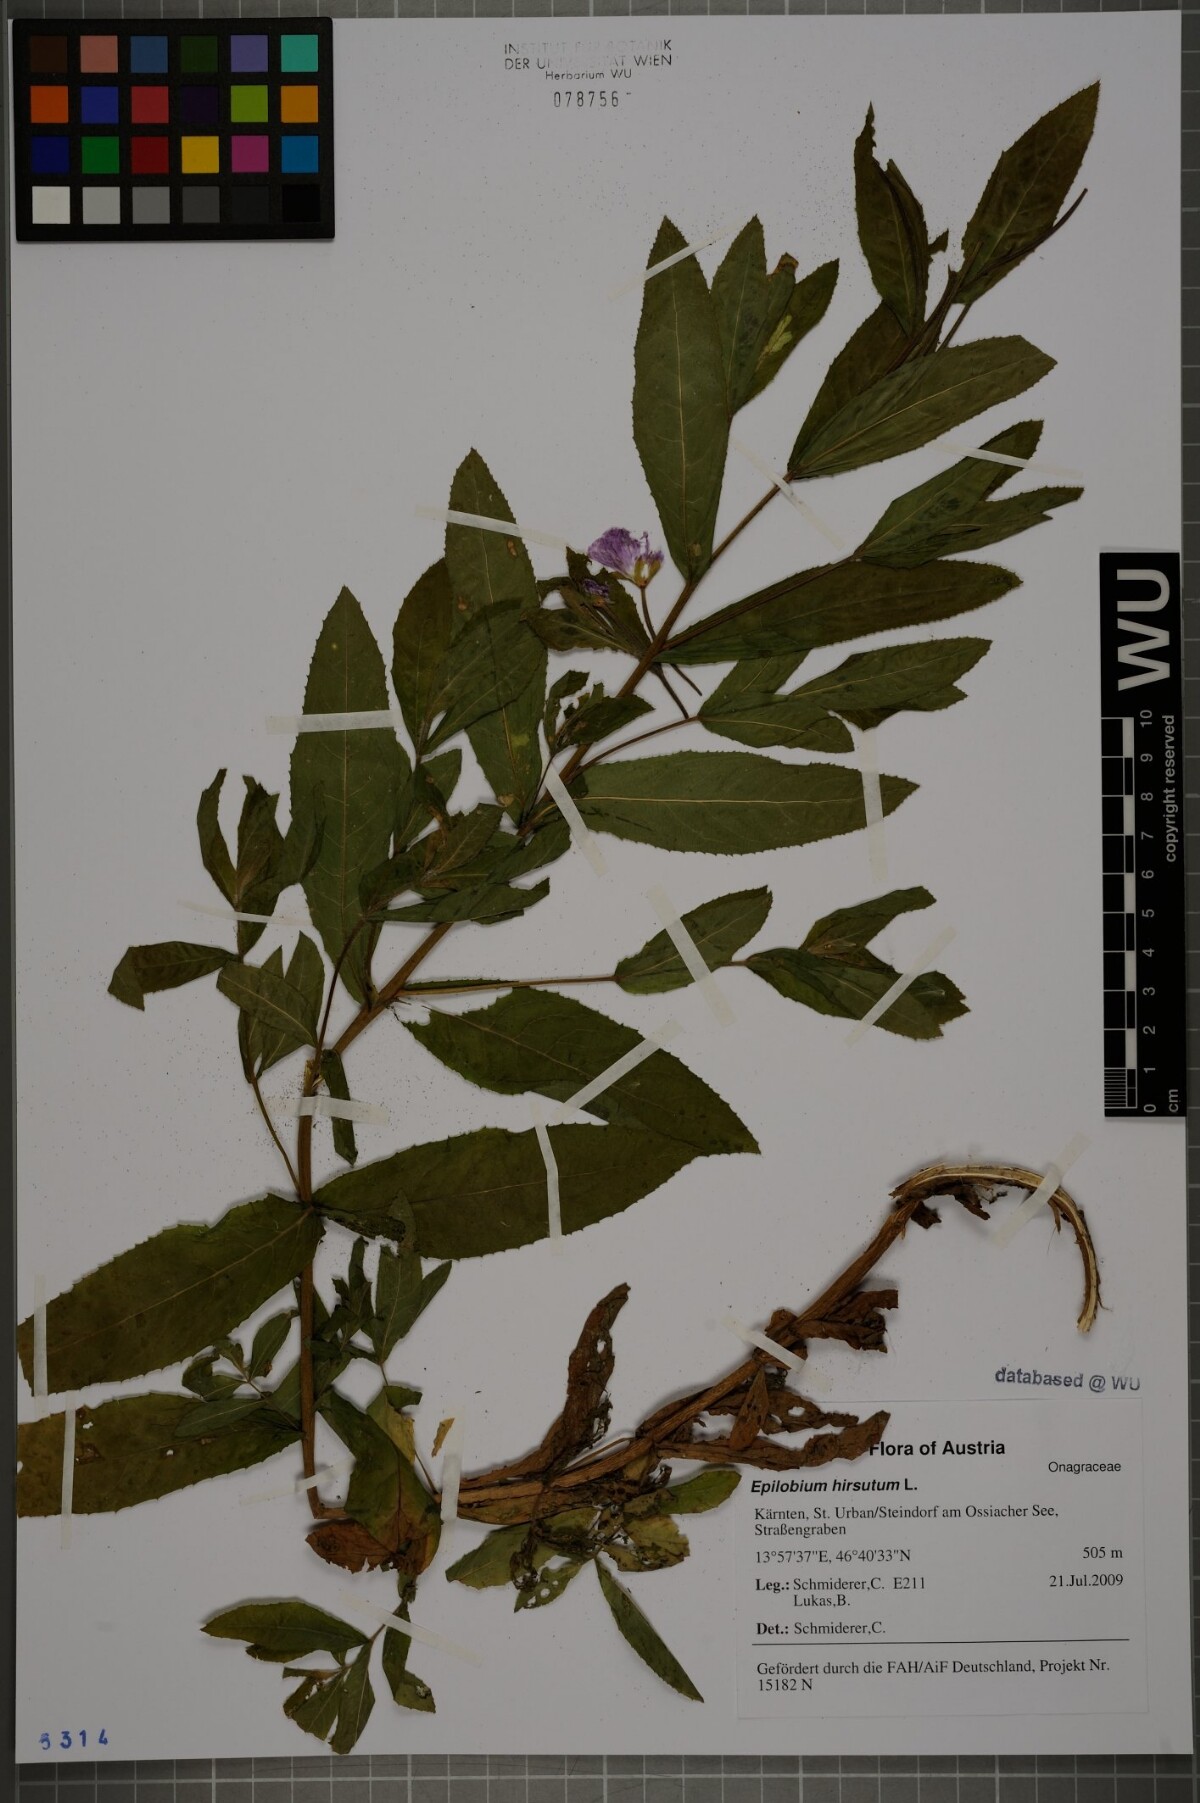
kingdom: Plantae
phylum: Tracheophyta
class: Magnoliopsida
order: Myrtales
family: Onagraceae
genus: Epilobium
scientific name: Epilobium hirsutum
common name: Great willowherb
